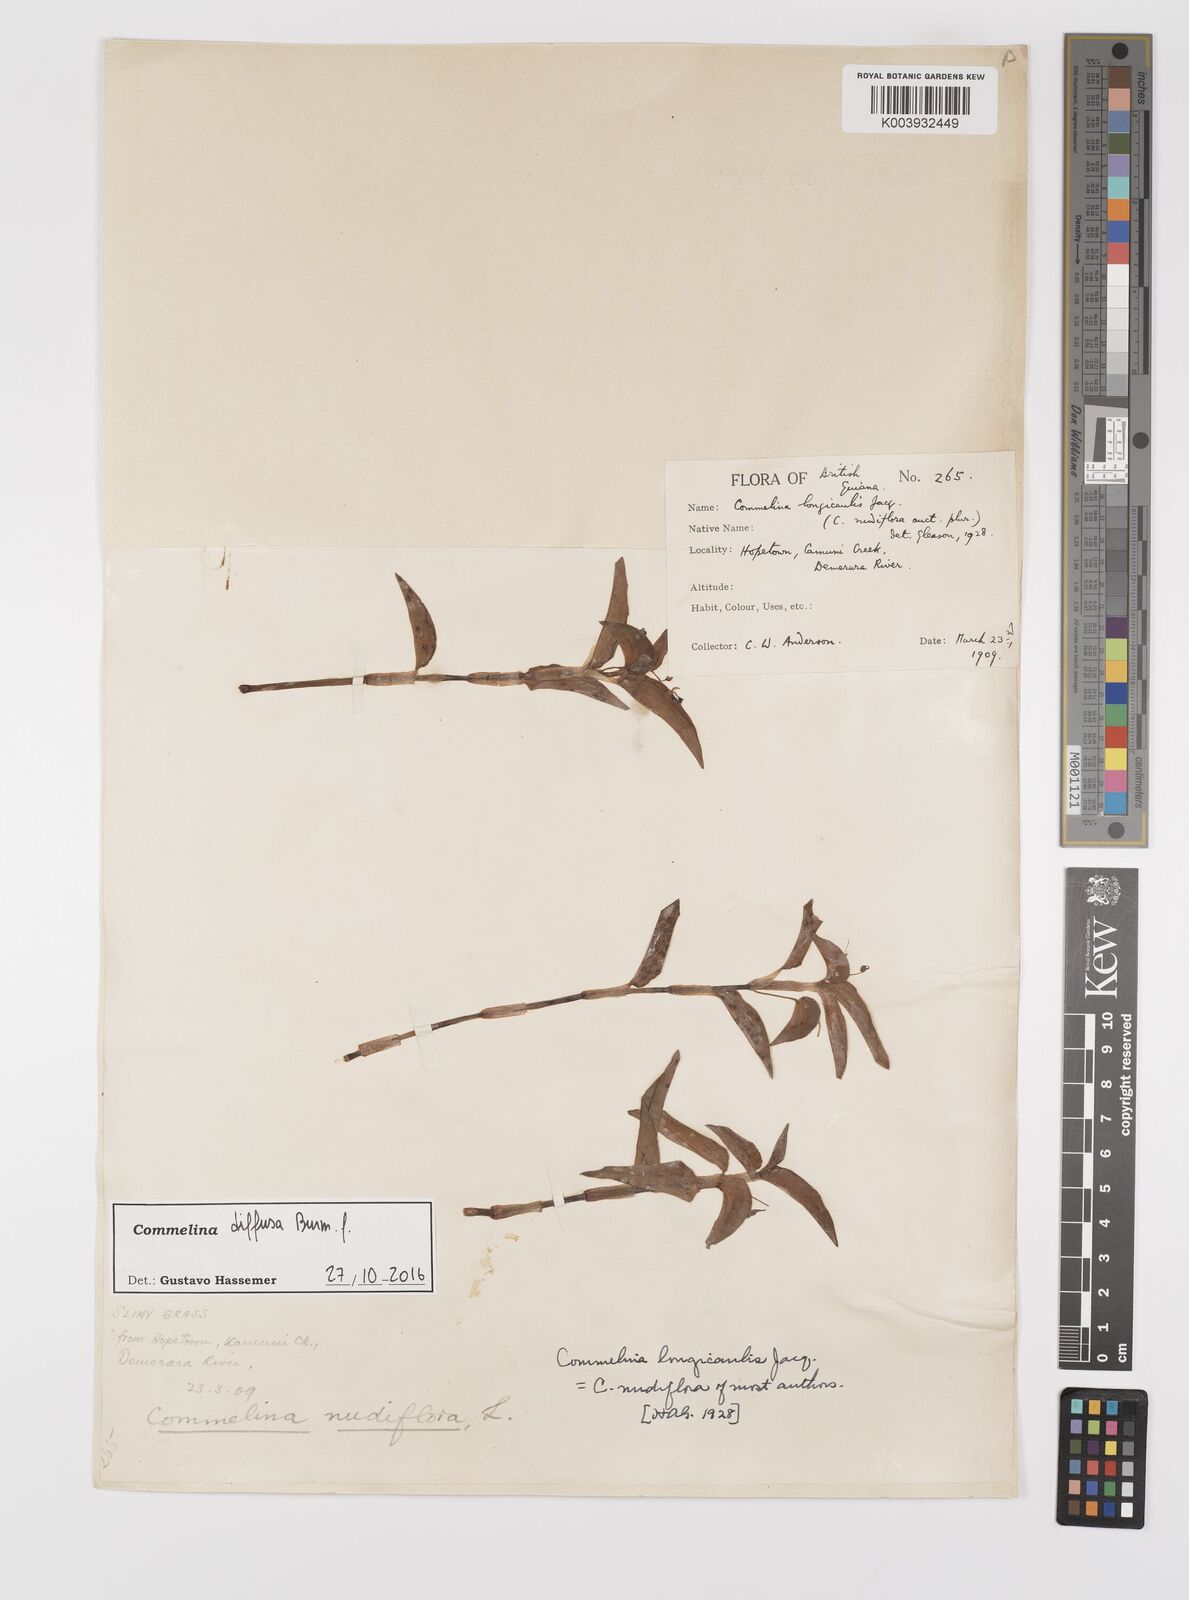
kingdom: Plantae
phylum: Tracheophyta
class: Liliopsida
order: Commelinales
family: Commelinaceae
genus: Commelina
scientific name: Commelina diffusa
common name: Climbing dayflower
